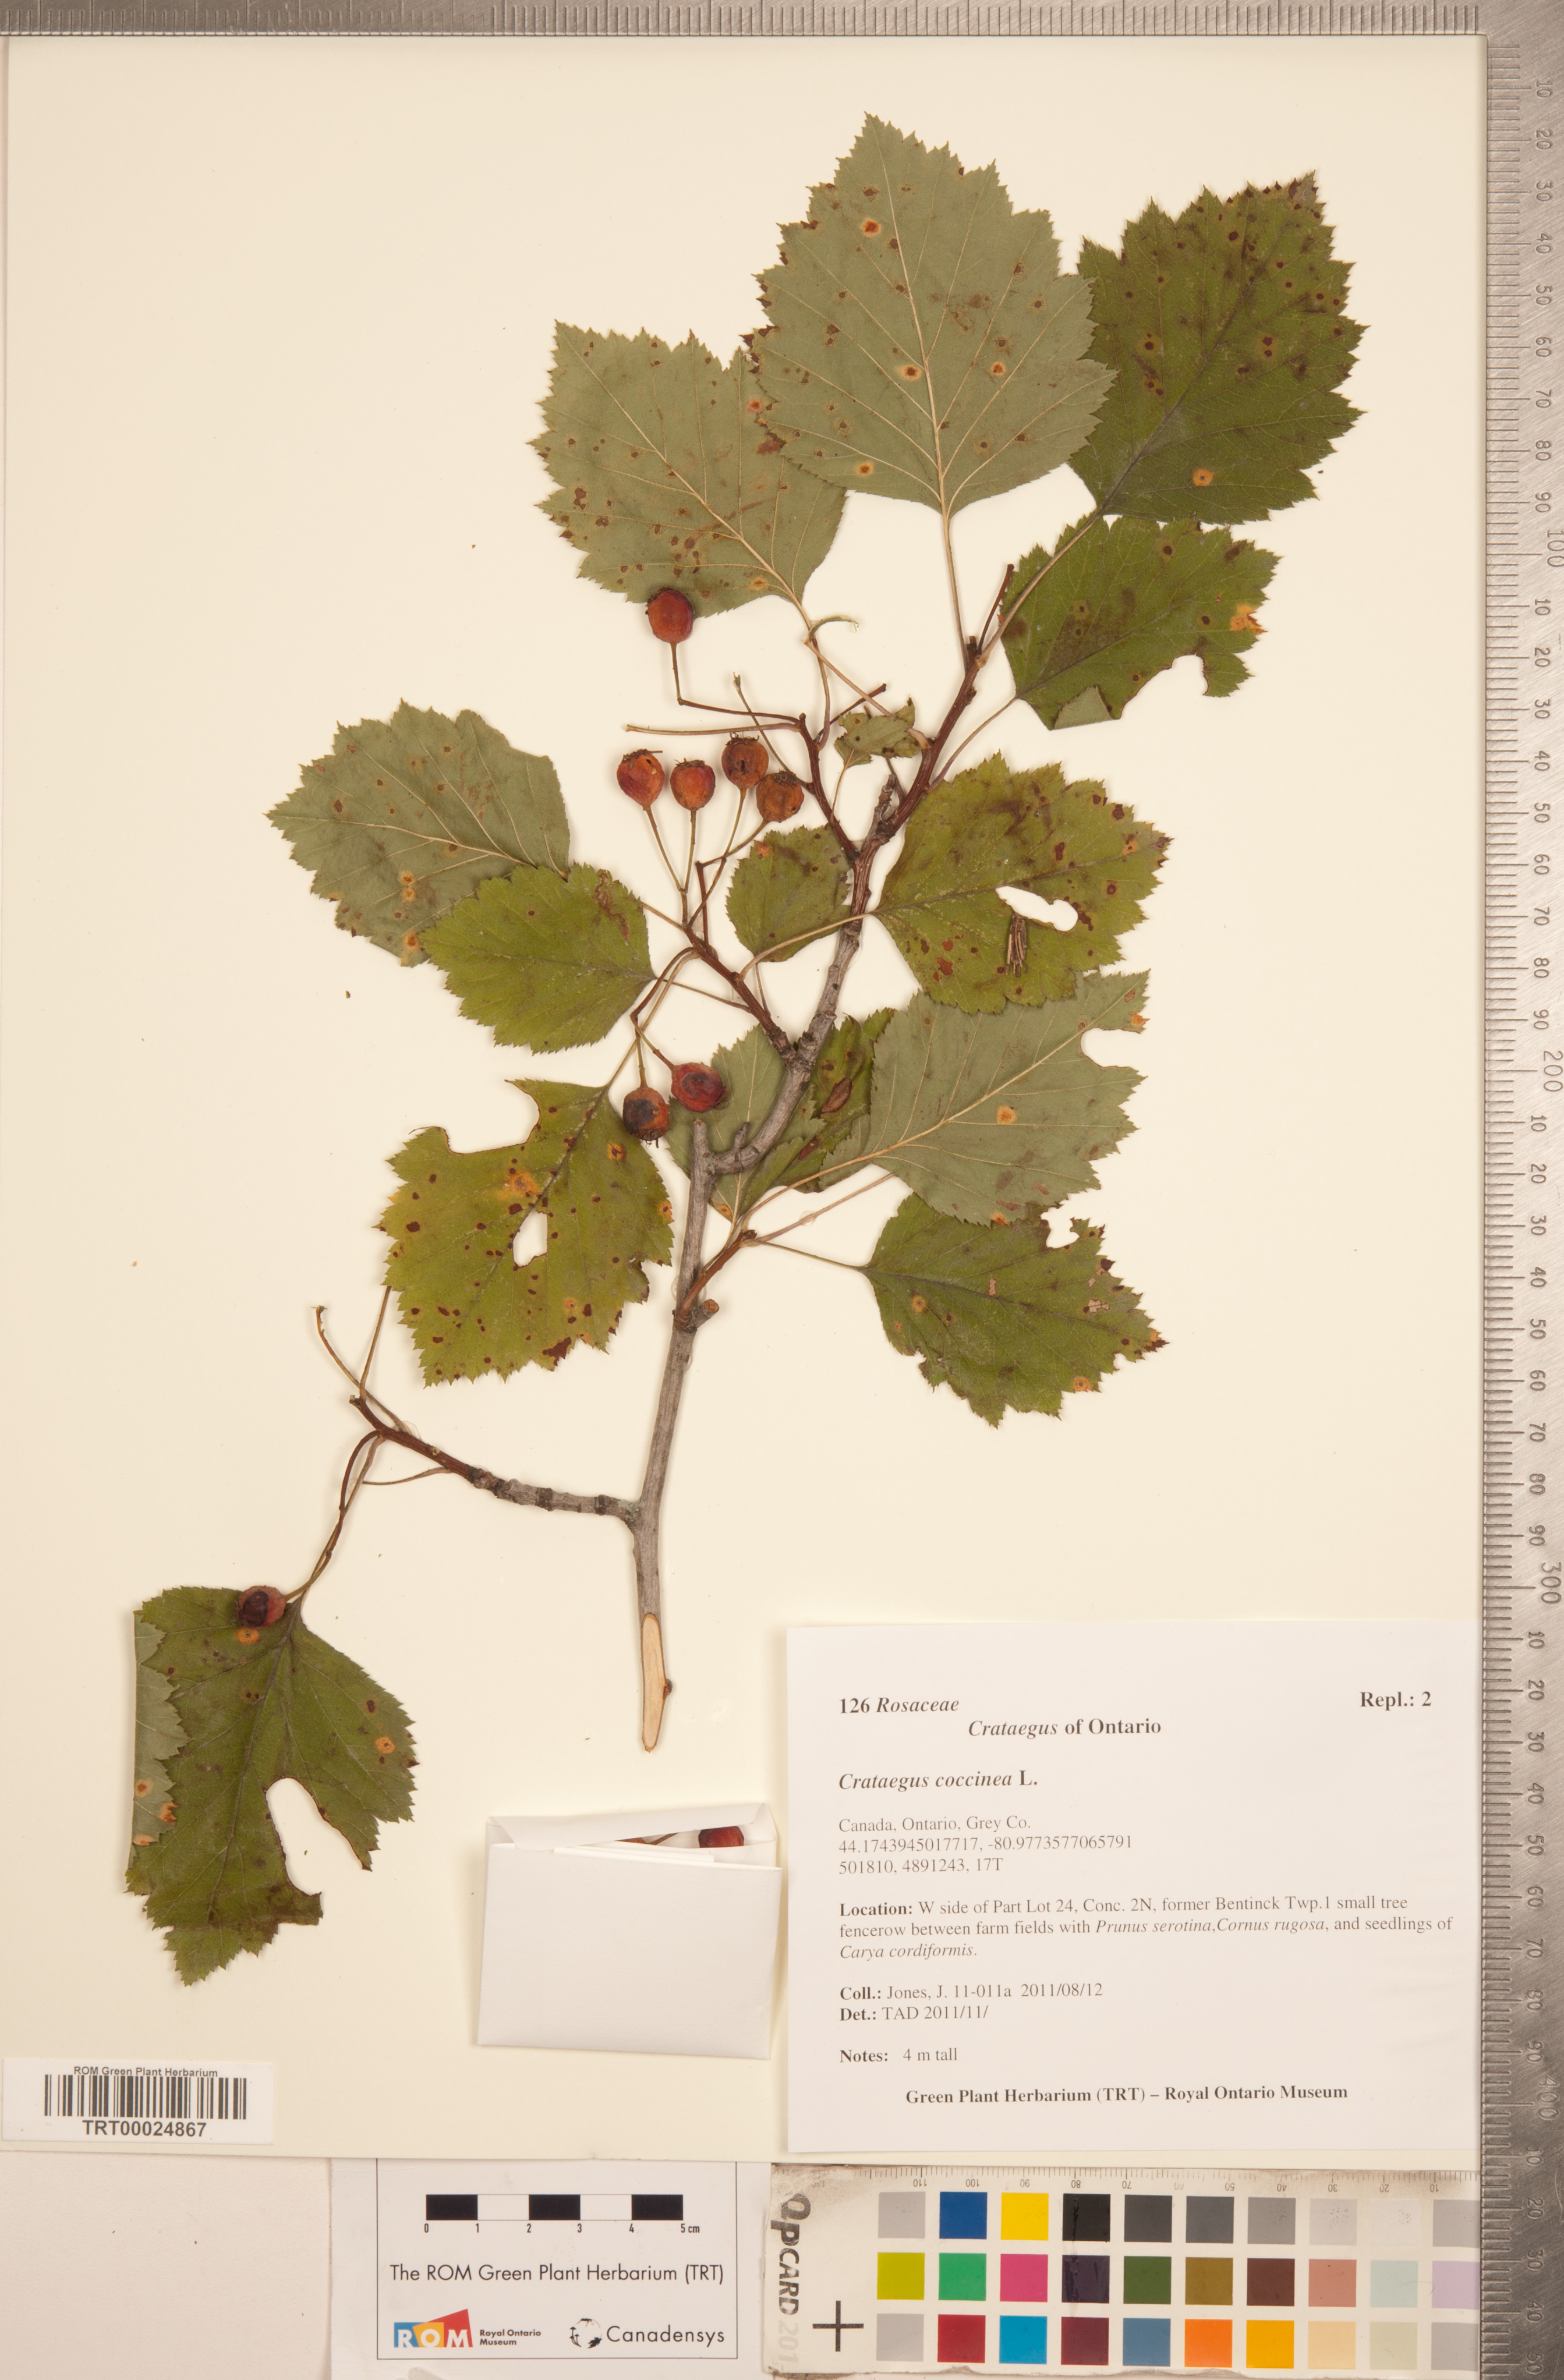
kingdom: Plantae
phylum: Tracheophyta
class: Magnoliopsida
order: Rosales
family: Rosaceae
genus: Crataegus
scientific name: Crataegus coccinea
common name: Scarlet hawthorn
